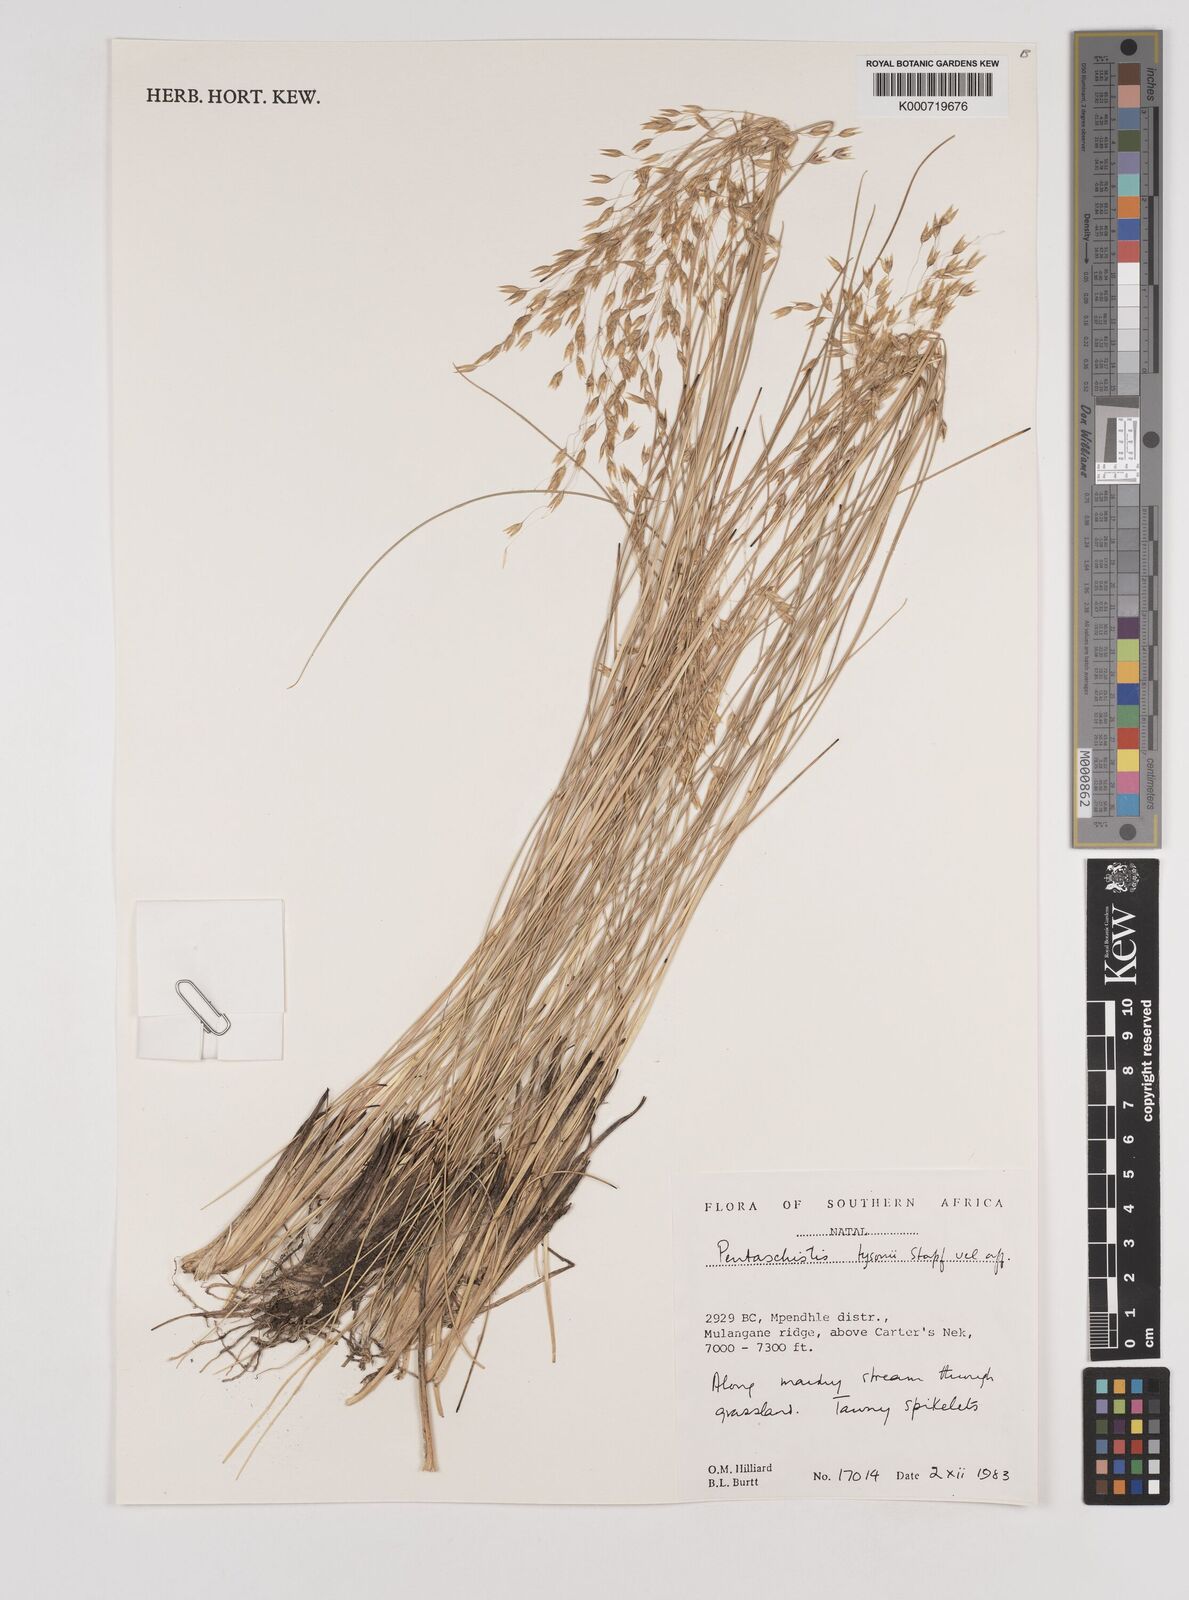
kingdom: Plantae
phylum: Tracheophyta
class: Liliopsida
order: Poales
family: Poaceae
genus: Pentameris
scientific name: Pentameris tysonii
